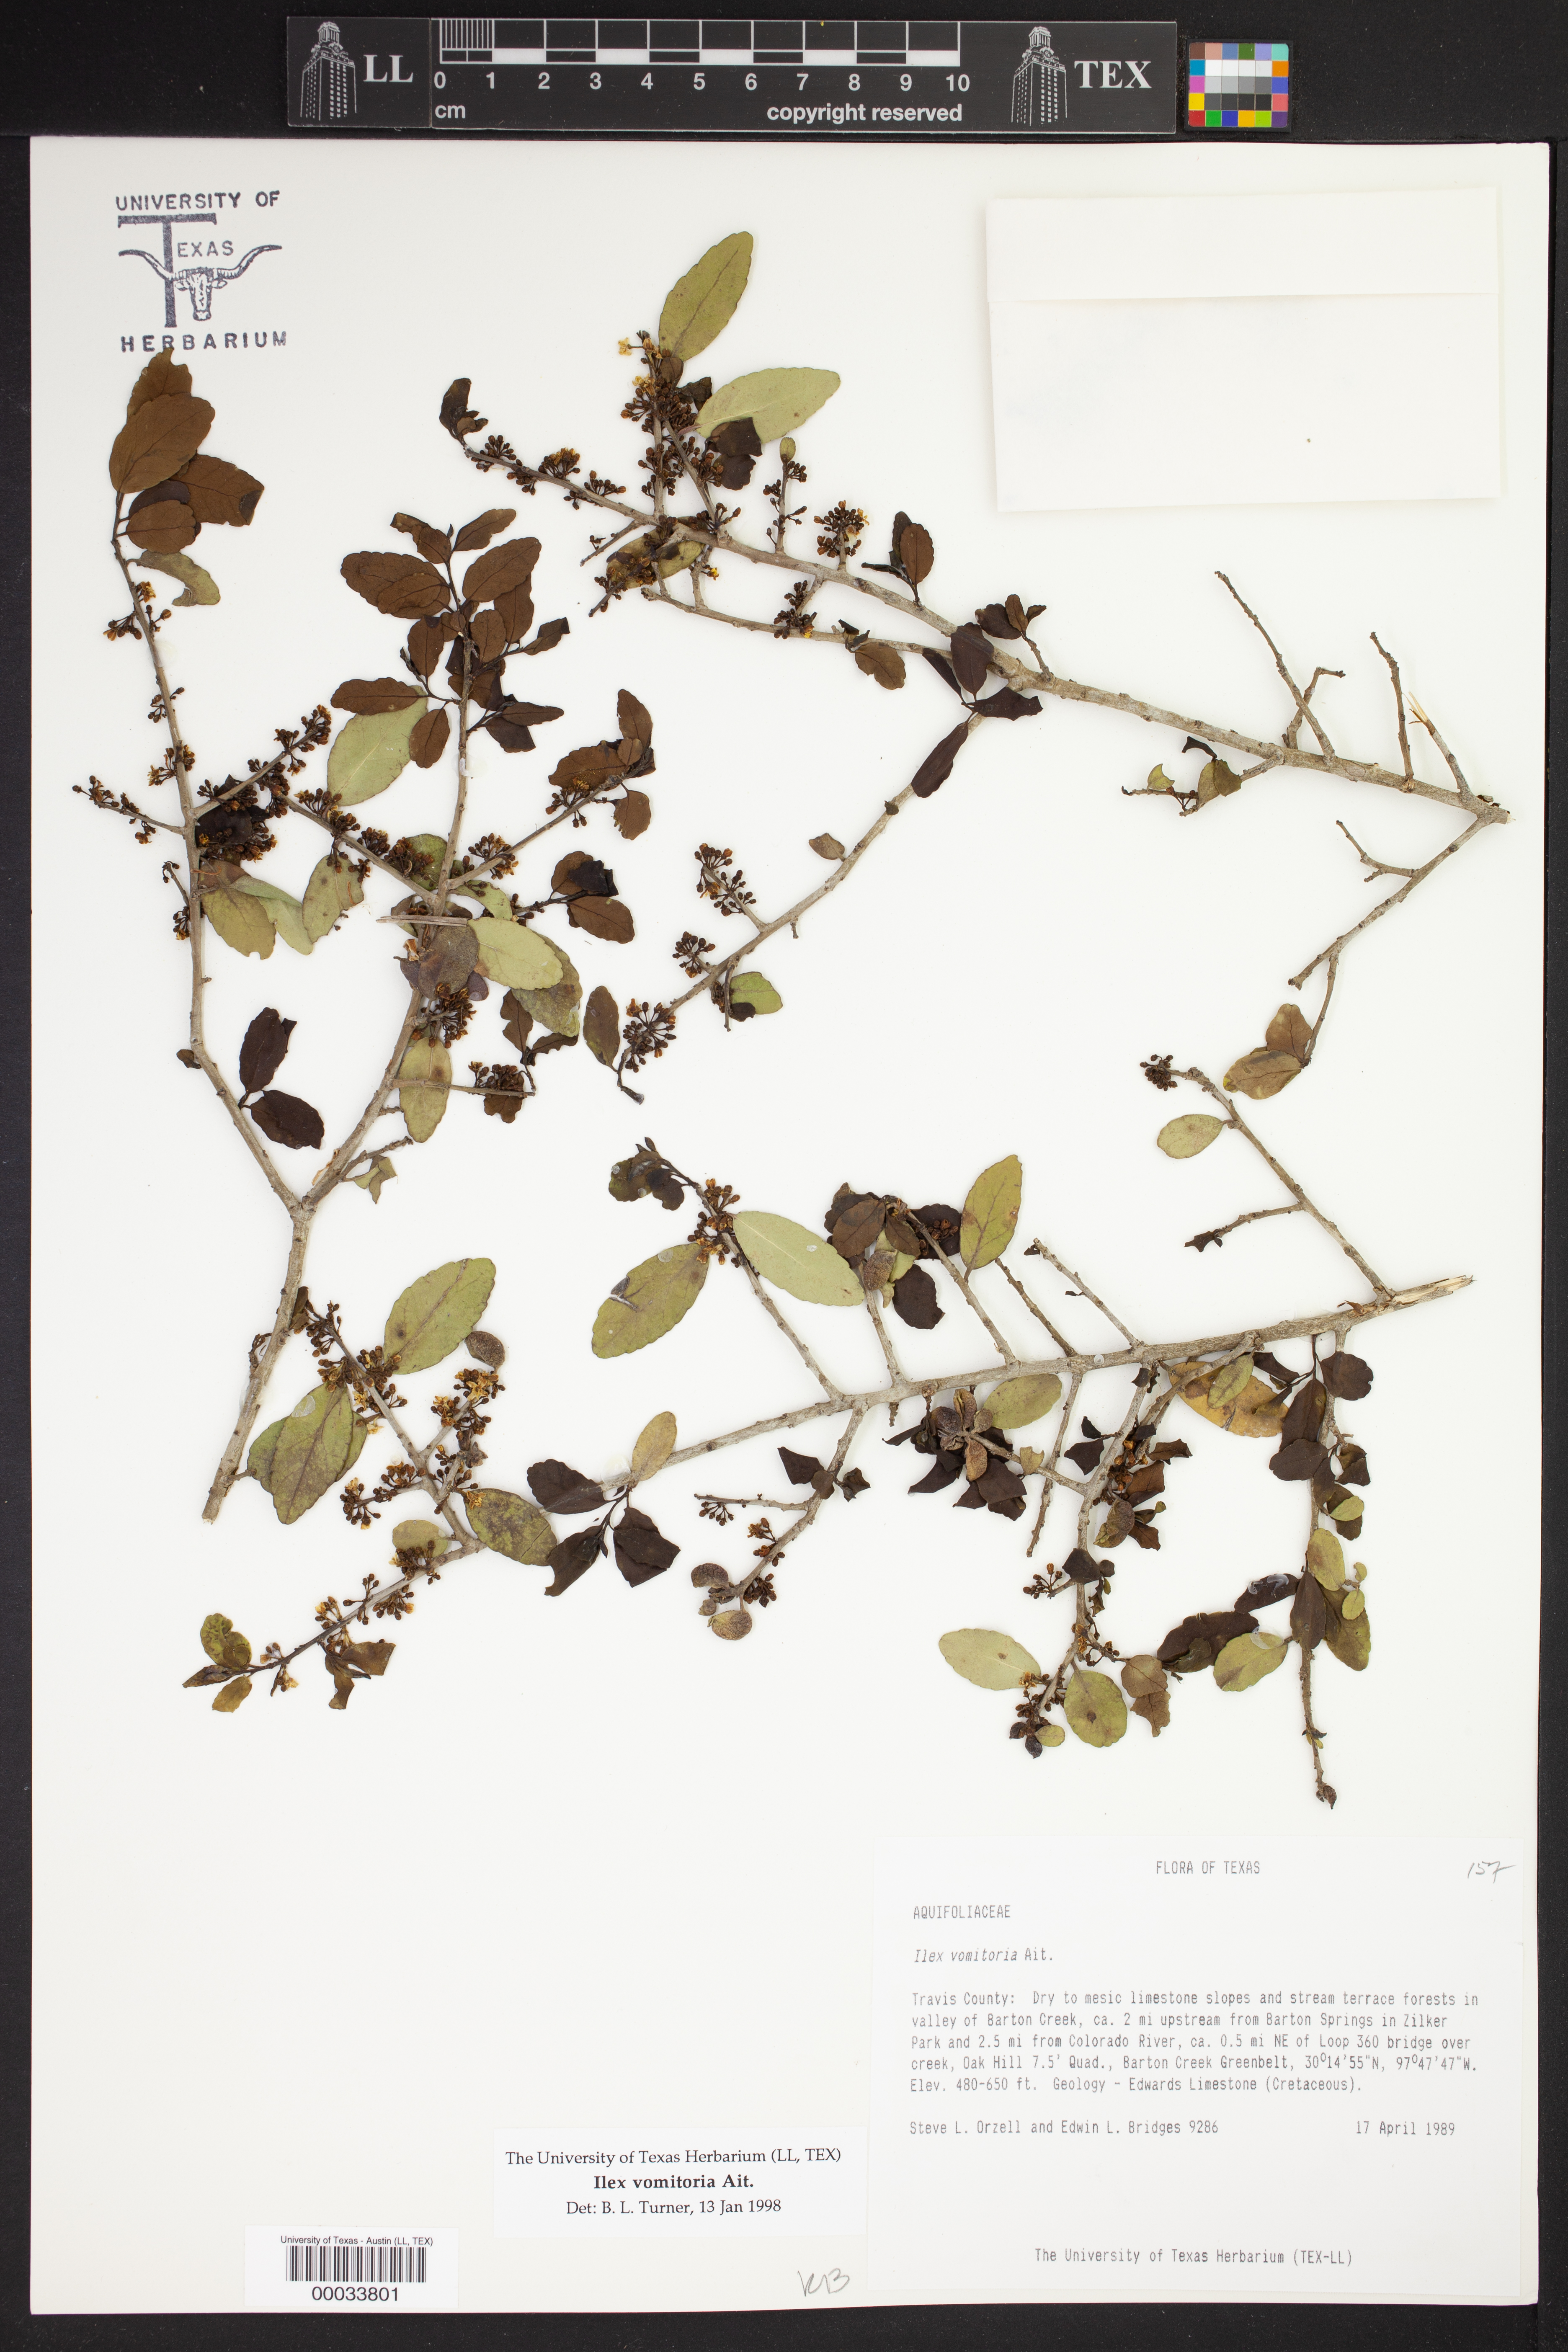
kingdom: Plantae
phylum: Tracheophyta
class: Magnoliopsida
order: Aquifoliales
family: Aquifoliaceae
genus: Ilex
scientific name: Ilex vomitoria
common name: Yaupon holly
